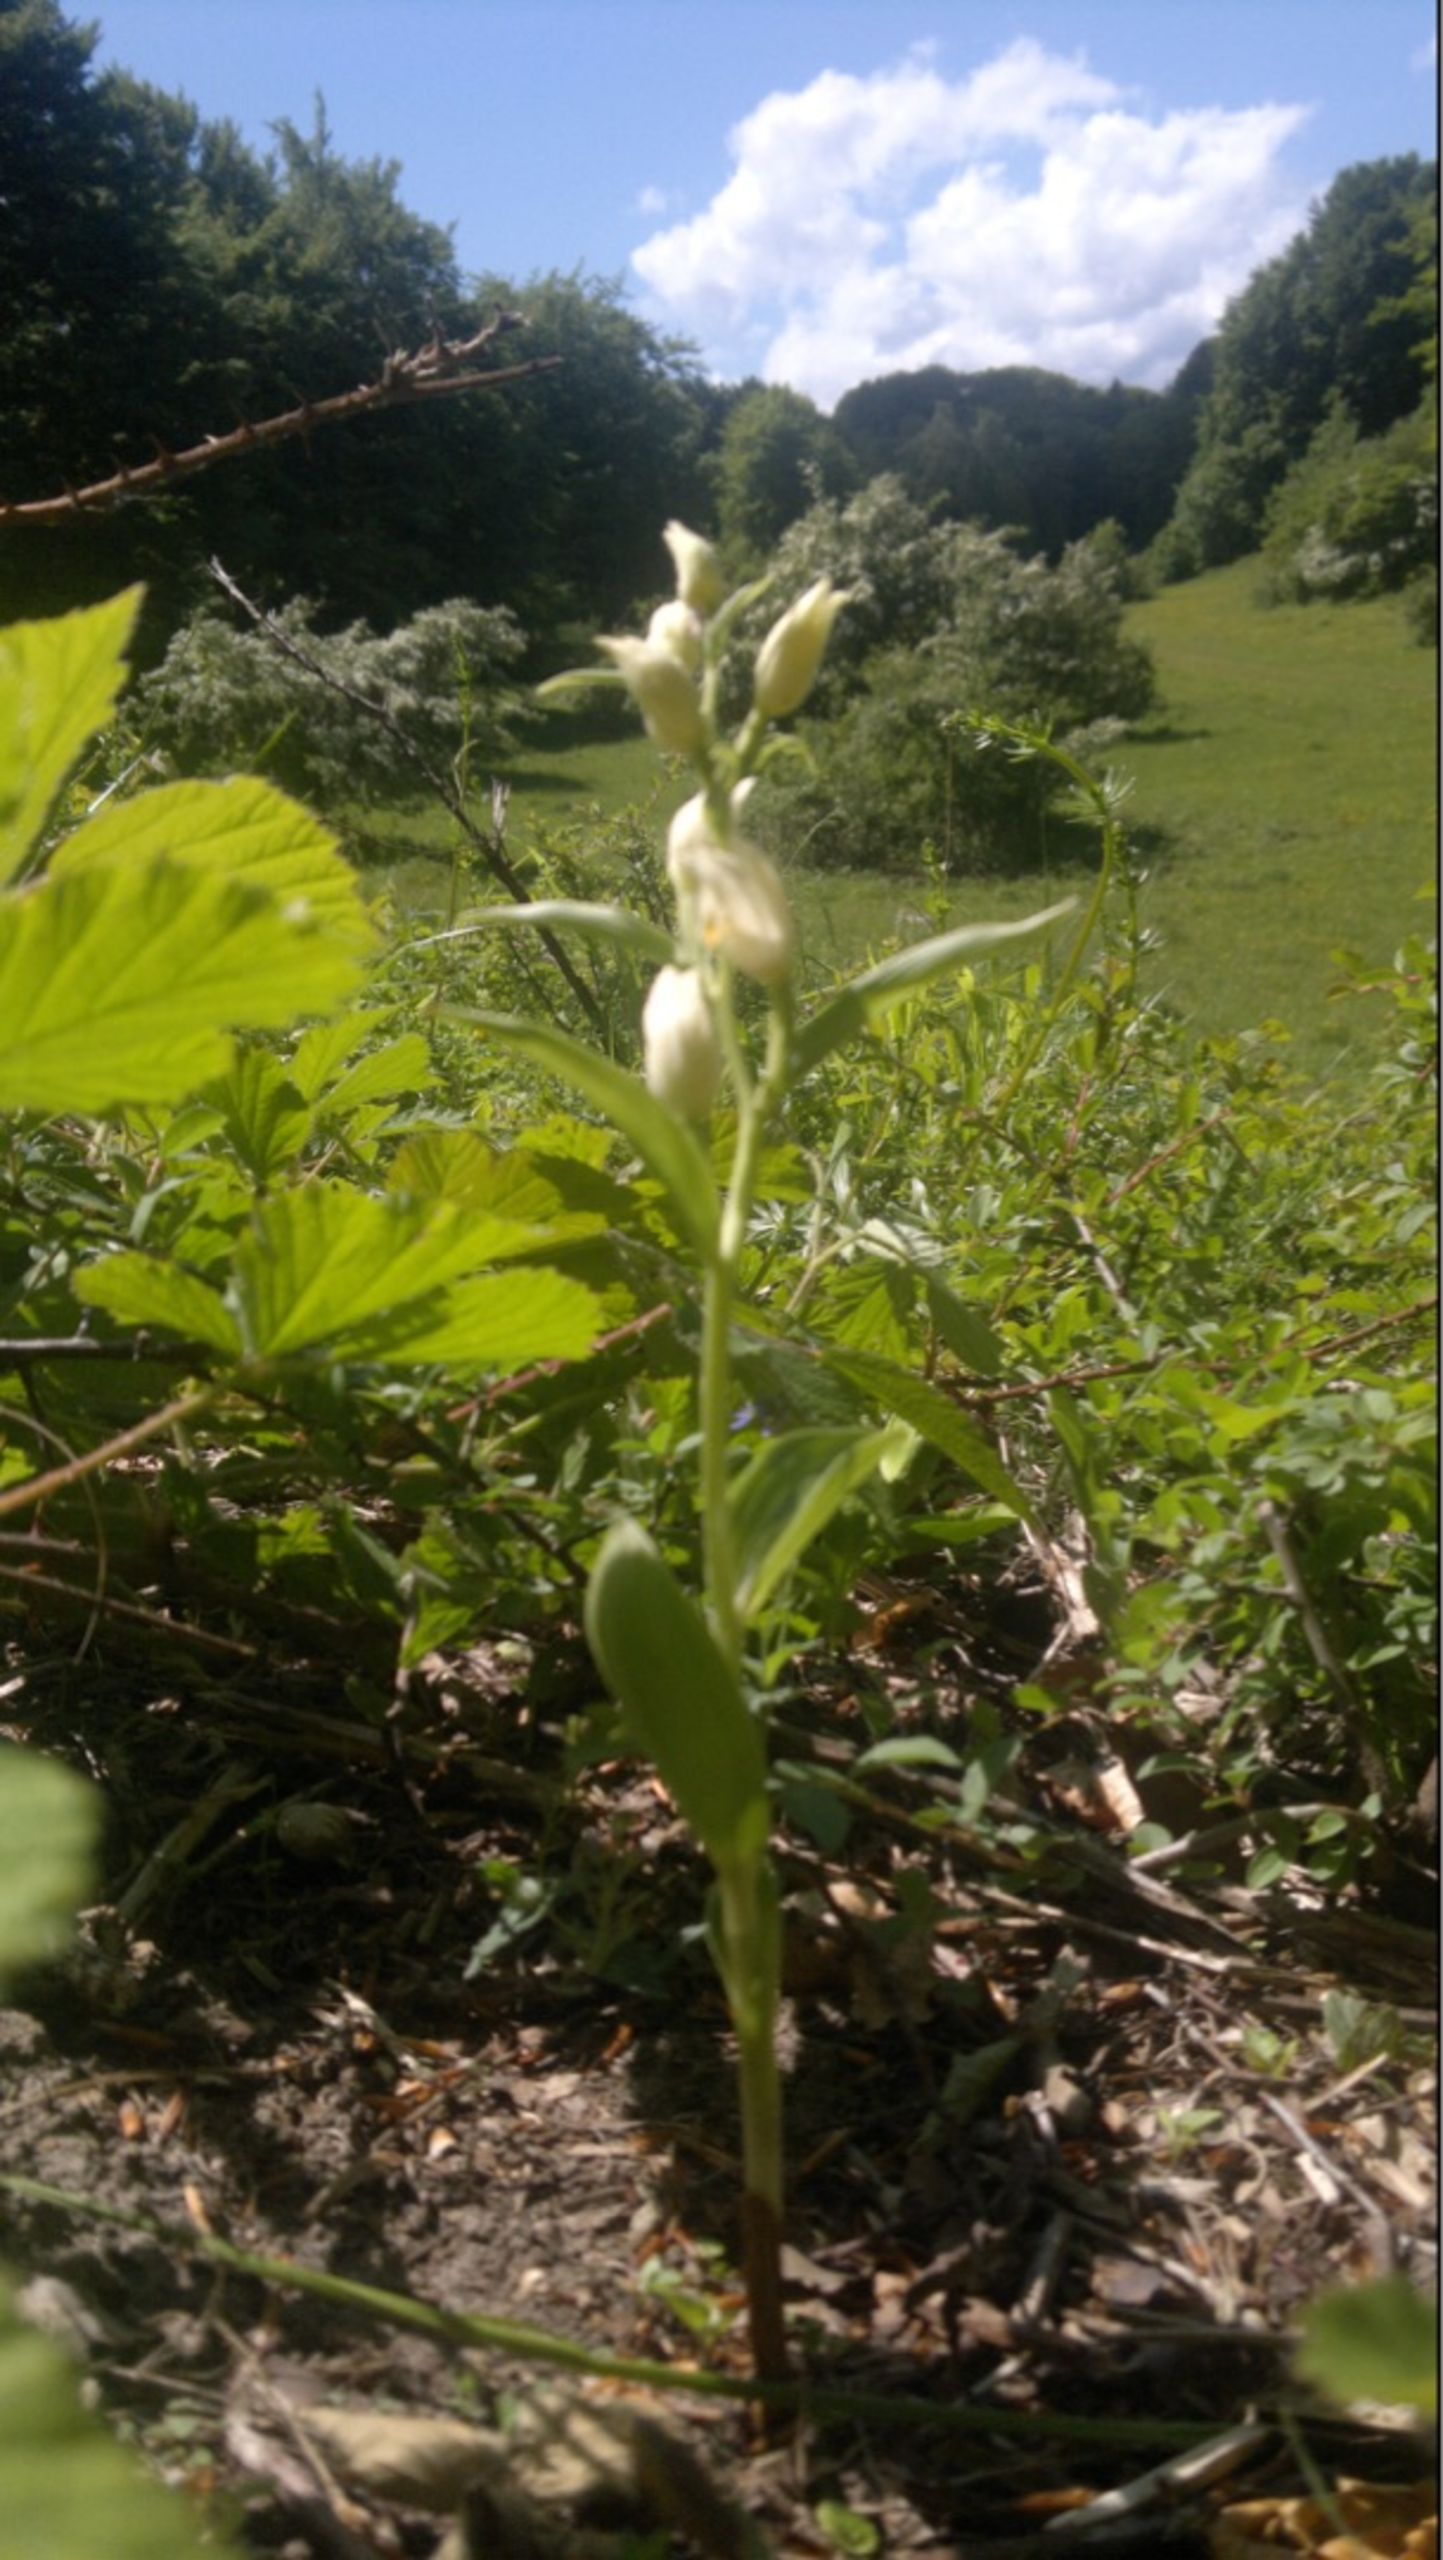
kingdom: Plantae
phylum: Tracheophyta
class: Liliopsida
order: Asparagales
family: Orchidaceae
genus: Cephalanthera
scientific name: Cephalanthera damasonium
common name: Hvidgul skovlilje
